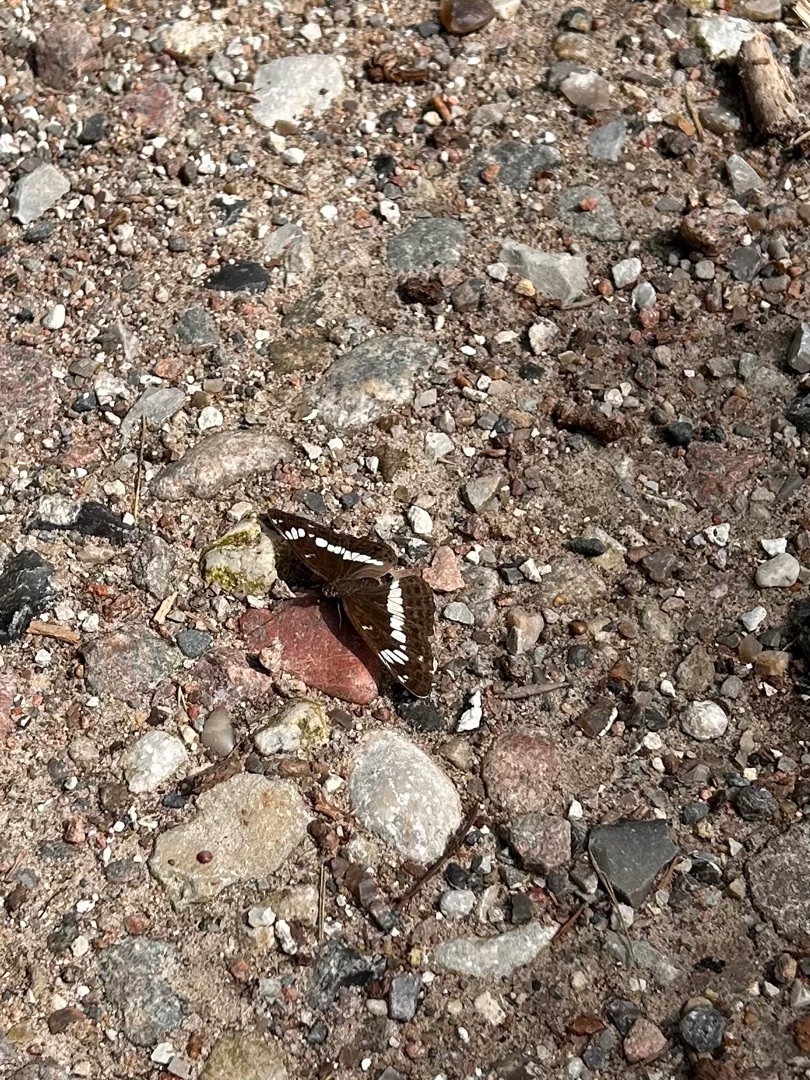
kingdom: Animalia
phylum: Arthropoda
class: Insecta
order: Lepidoptera
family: Nymphalidae
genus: Ladoga
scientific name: Ladoga camilla
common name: Hvid admiral
